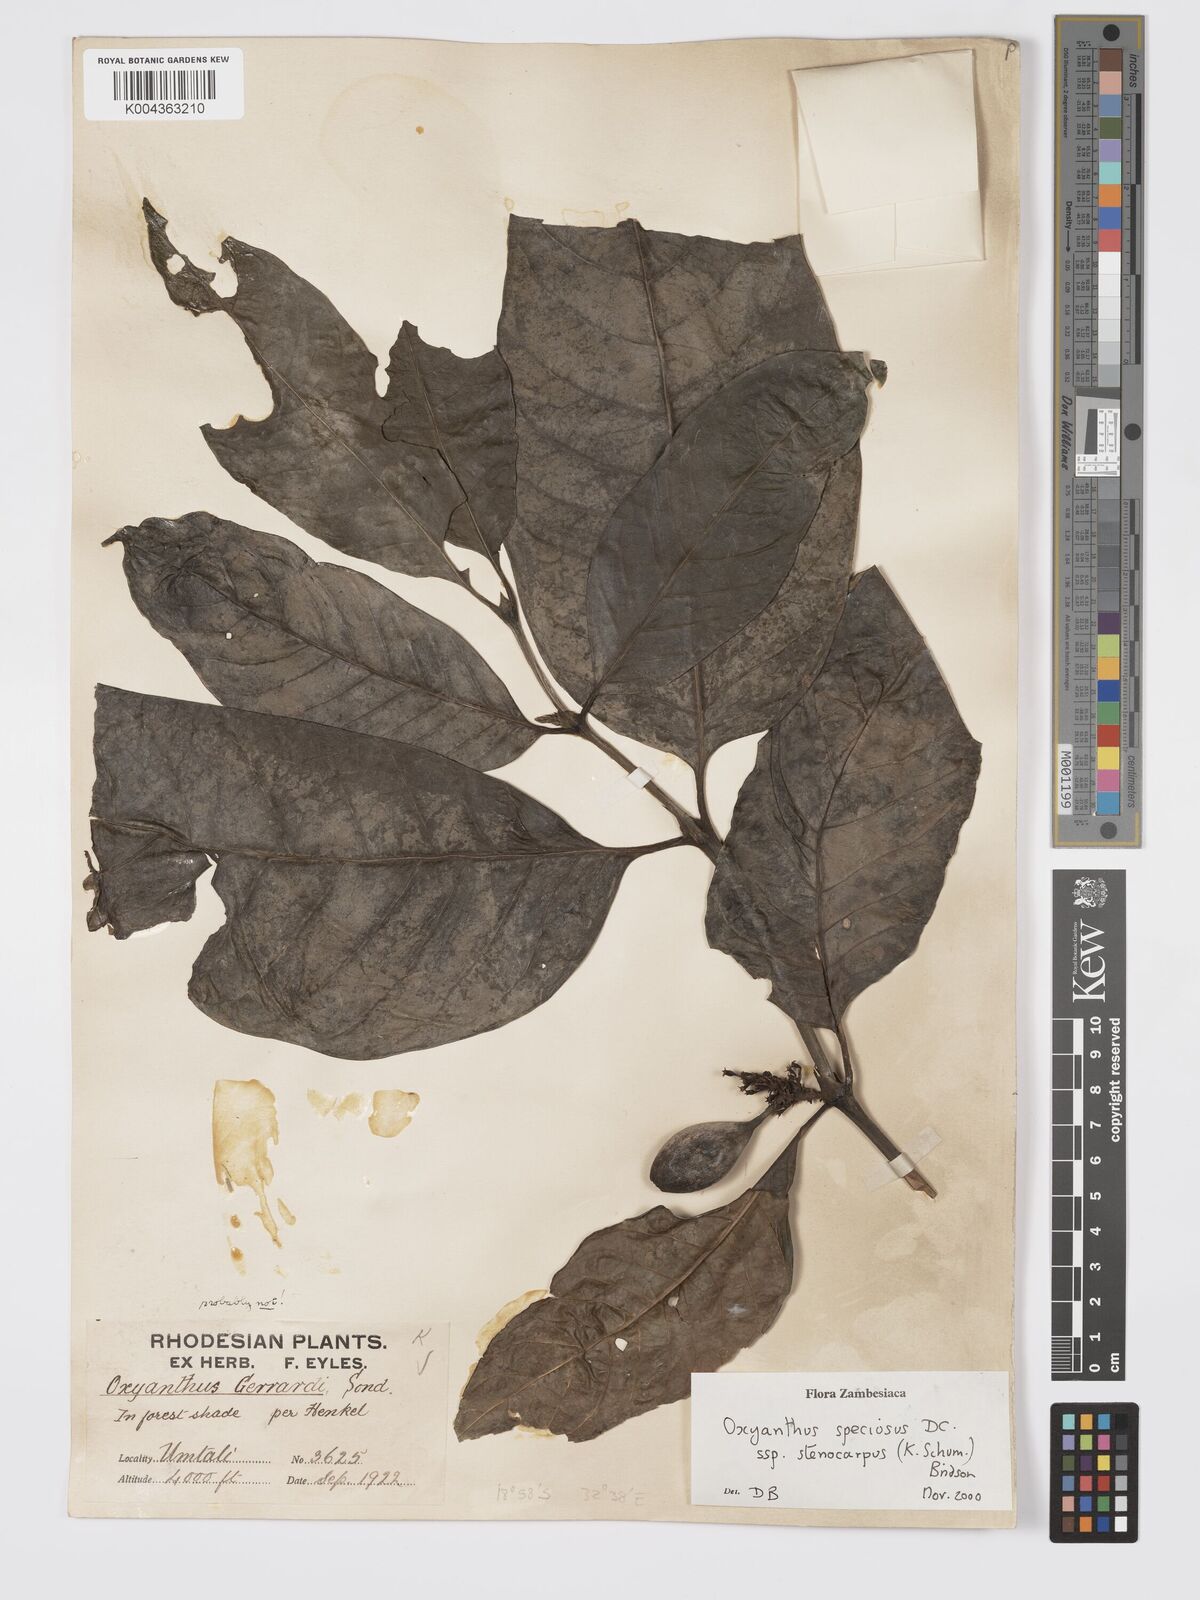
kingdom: Plantae
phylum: Tracheophyta
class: Magnoliopsida
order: Gentianales
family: Rubiaceae
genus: Oxyanthus
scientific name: Oxyanthus speciosus
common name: Whipstick loquat
